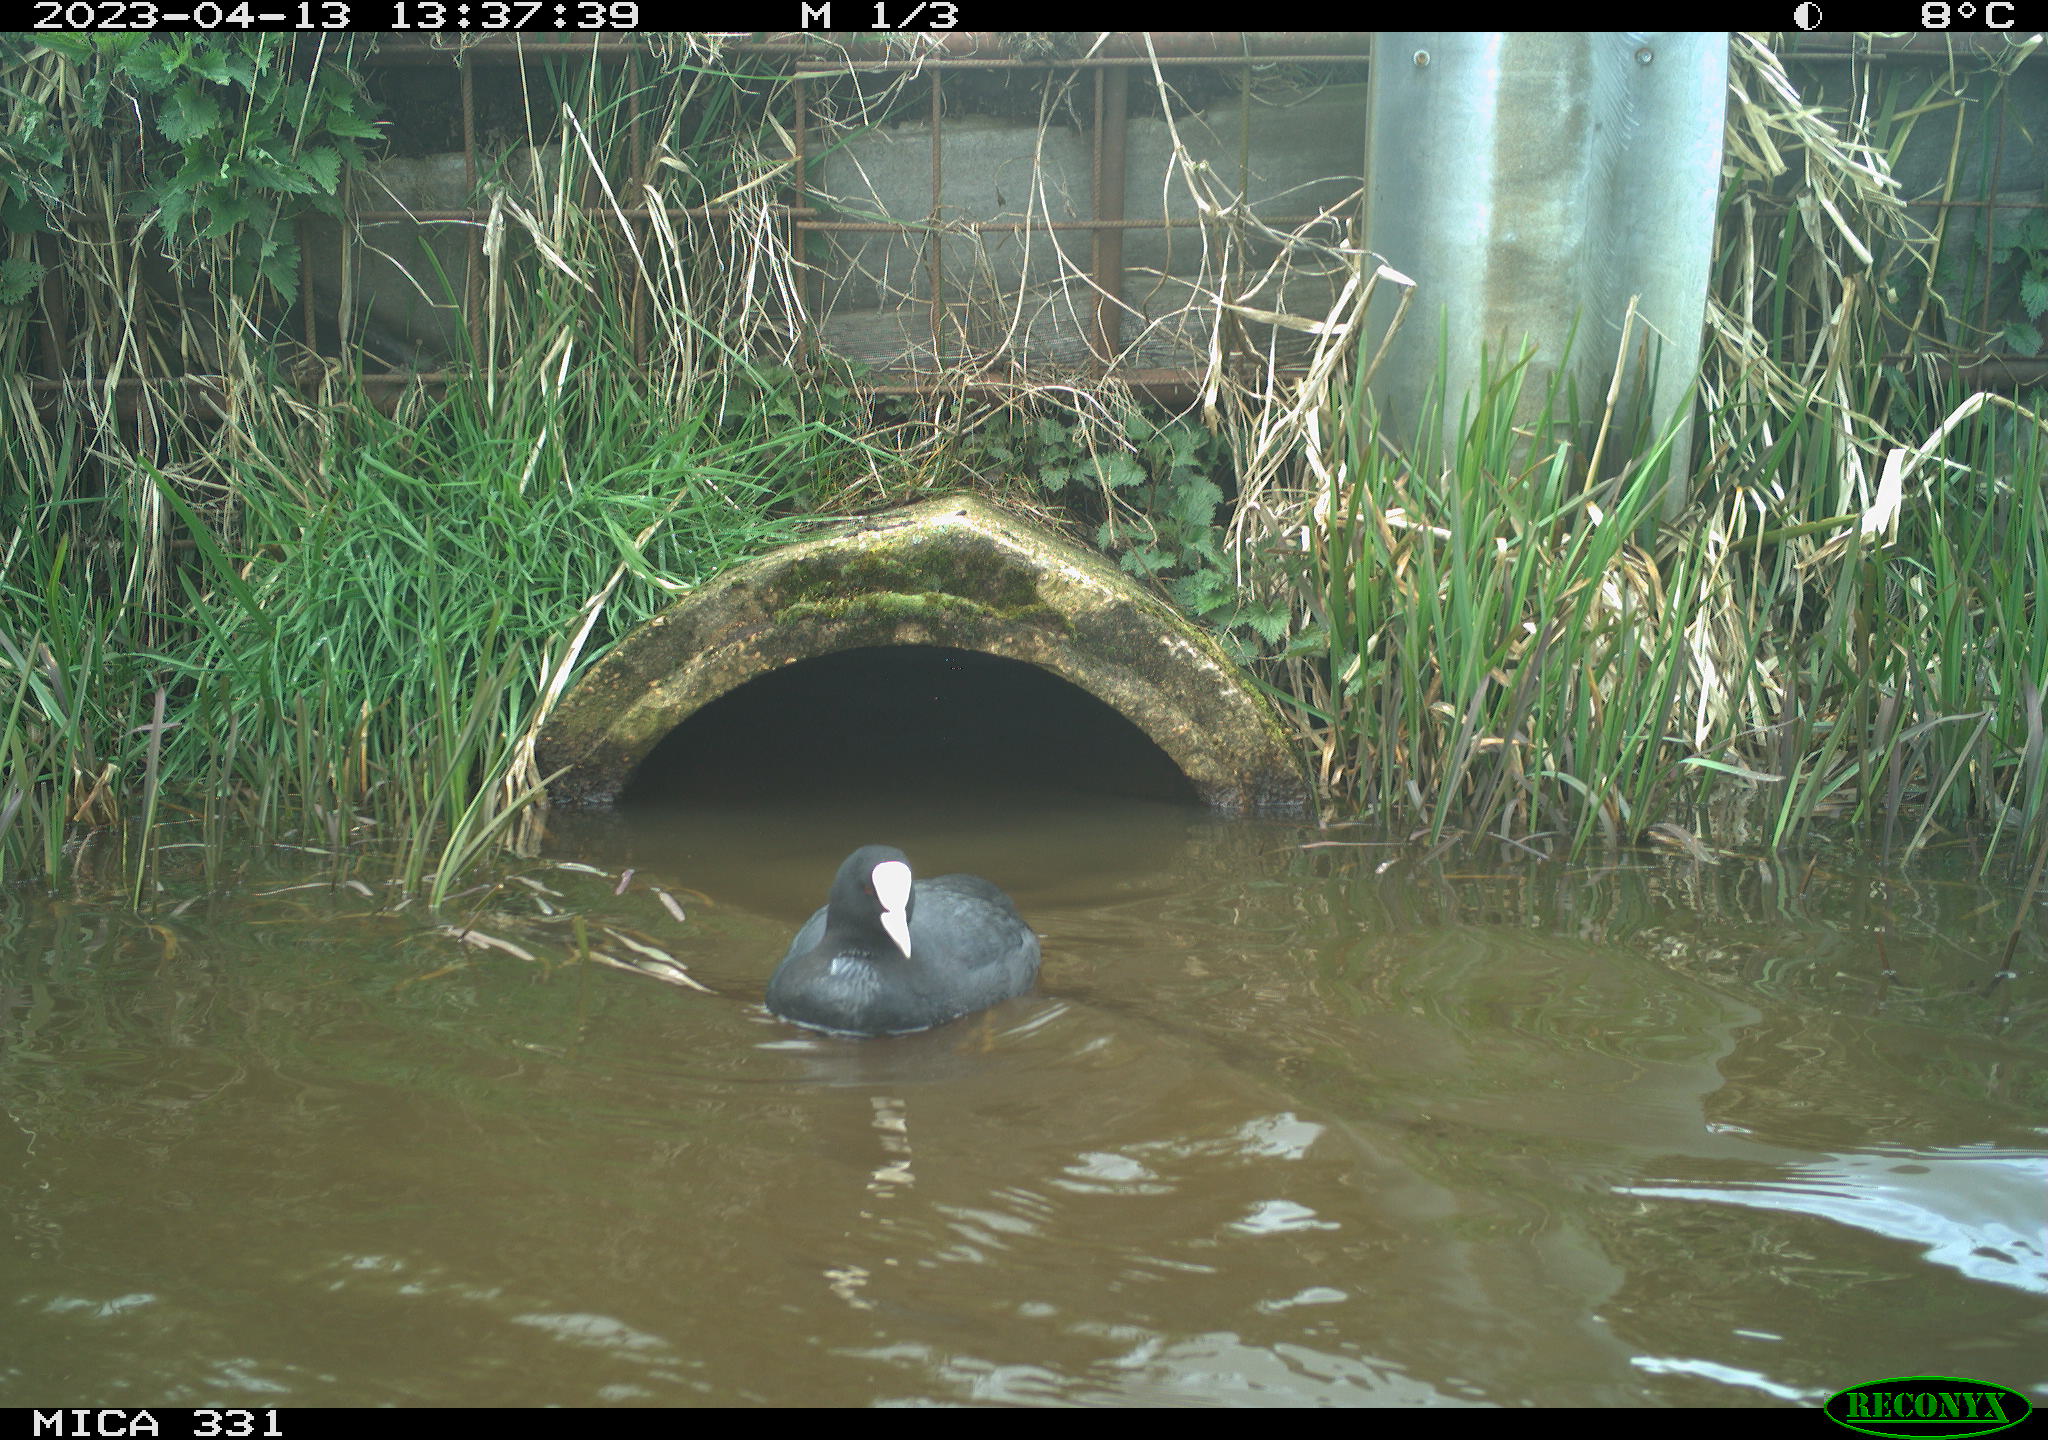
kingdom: Animalia
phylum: Chordata
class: Aves
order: Gruiformes
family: Rallidae
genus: Gallinula
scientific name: Gallinula chloropus
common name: Common moorhen
